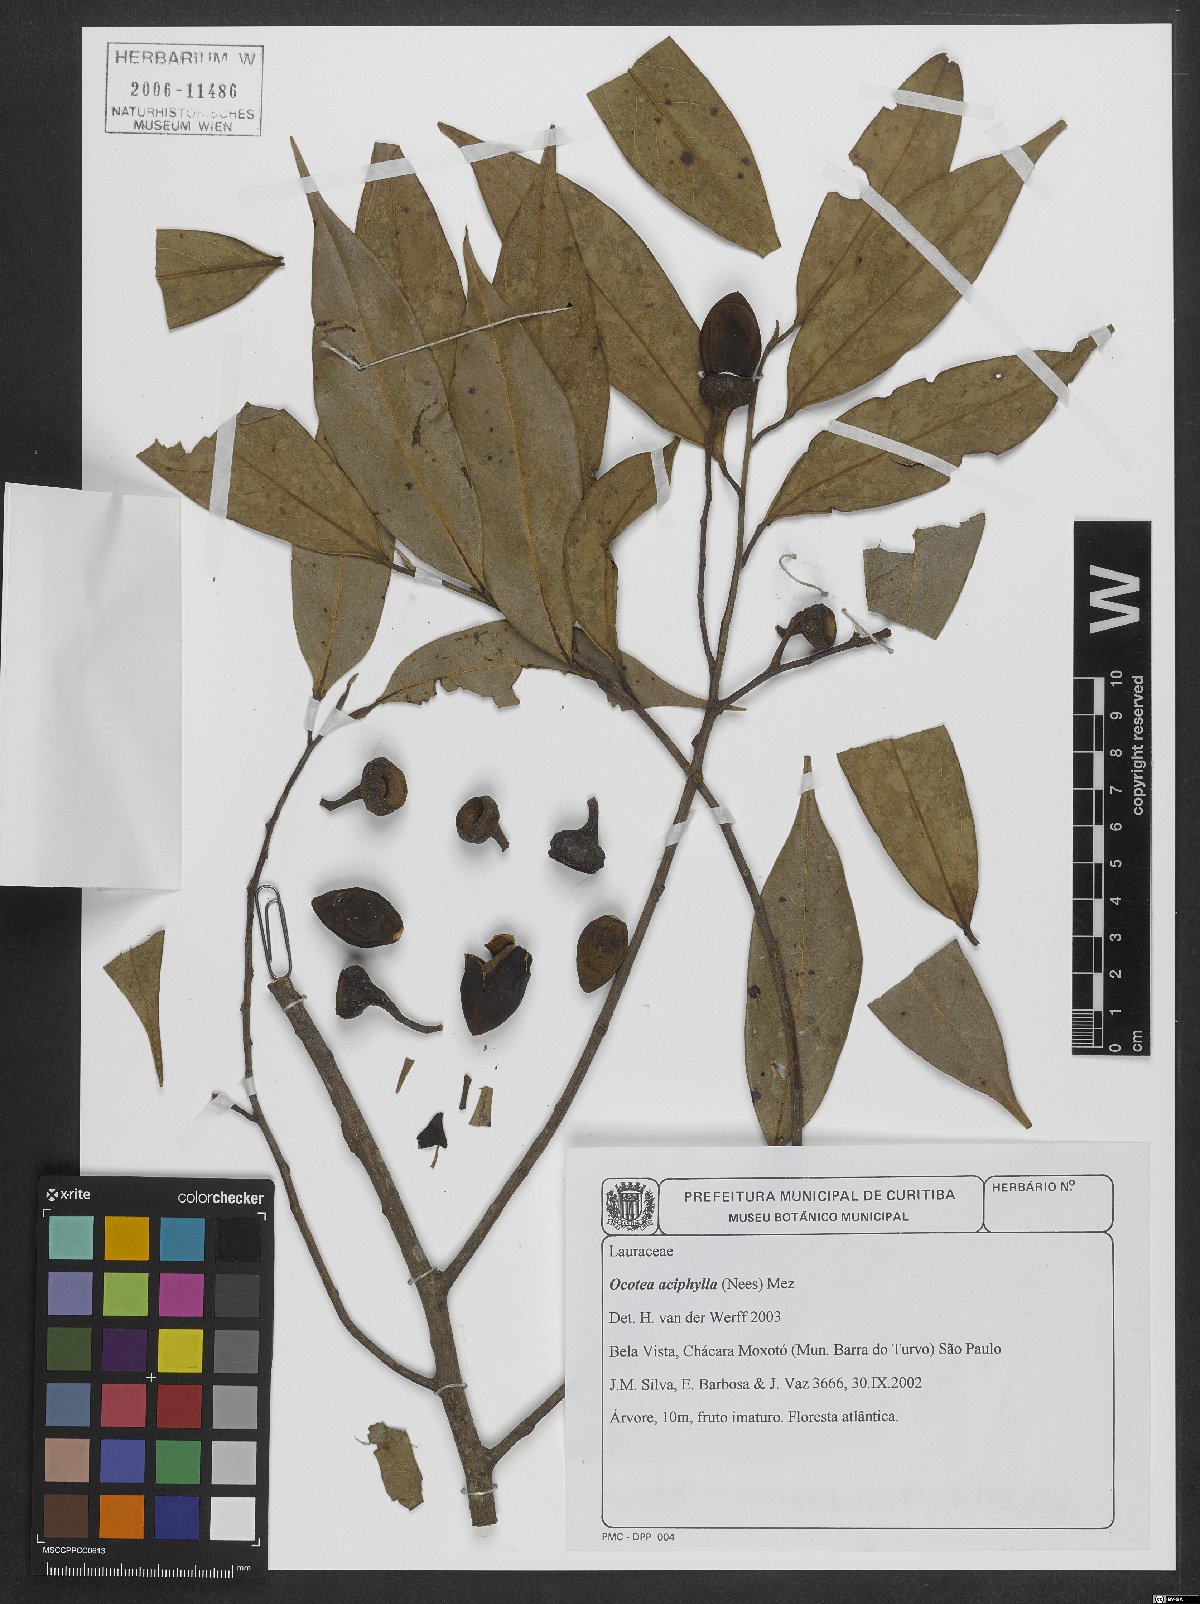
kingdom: Plantae
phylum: Tracheophyta
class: Magnoliopsida
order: Laurales
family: Lauraceae
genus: Ocotea
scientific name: Ocotea aciphylla
